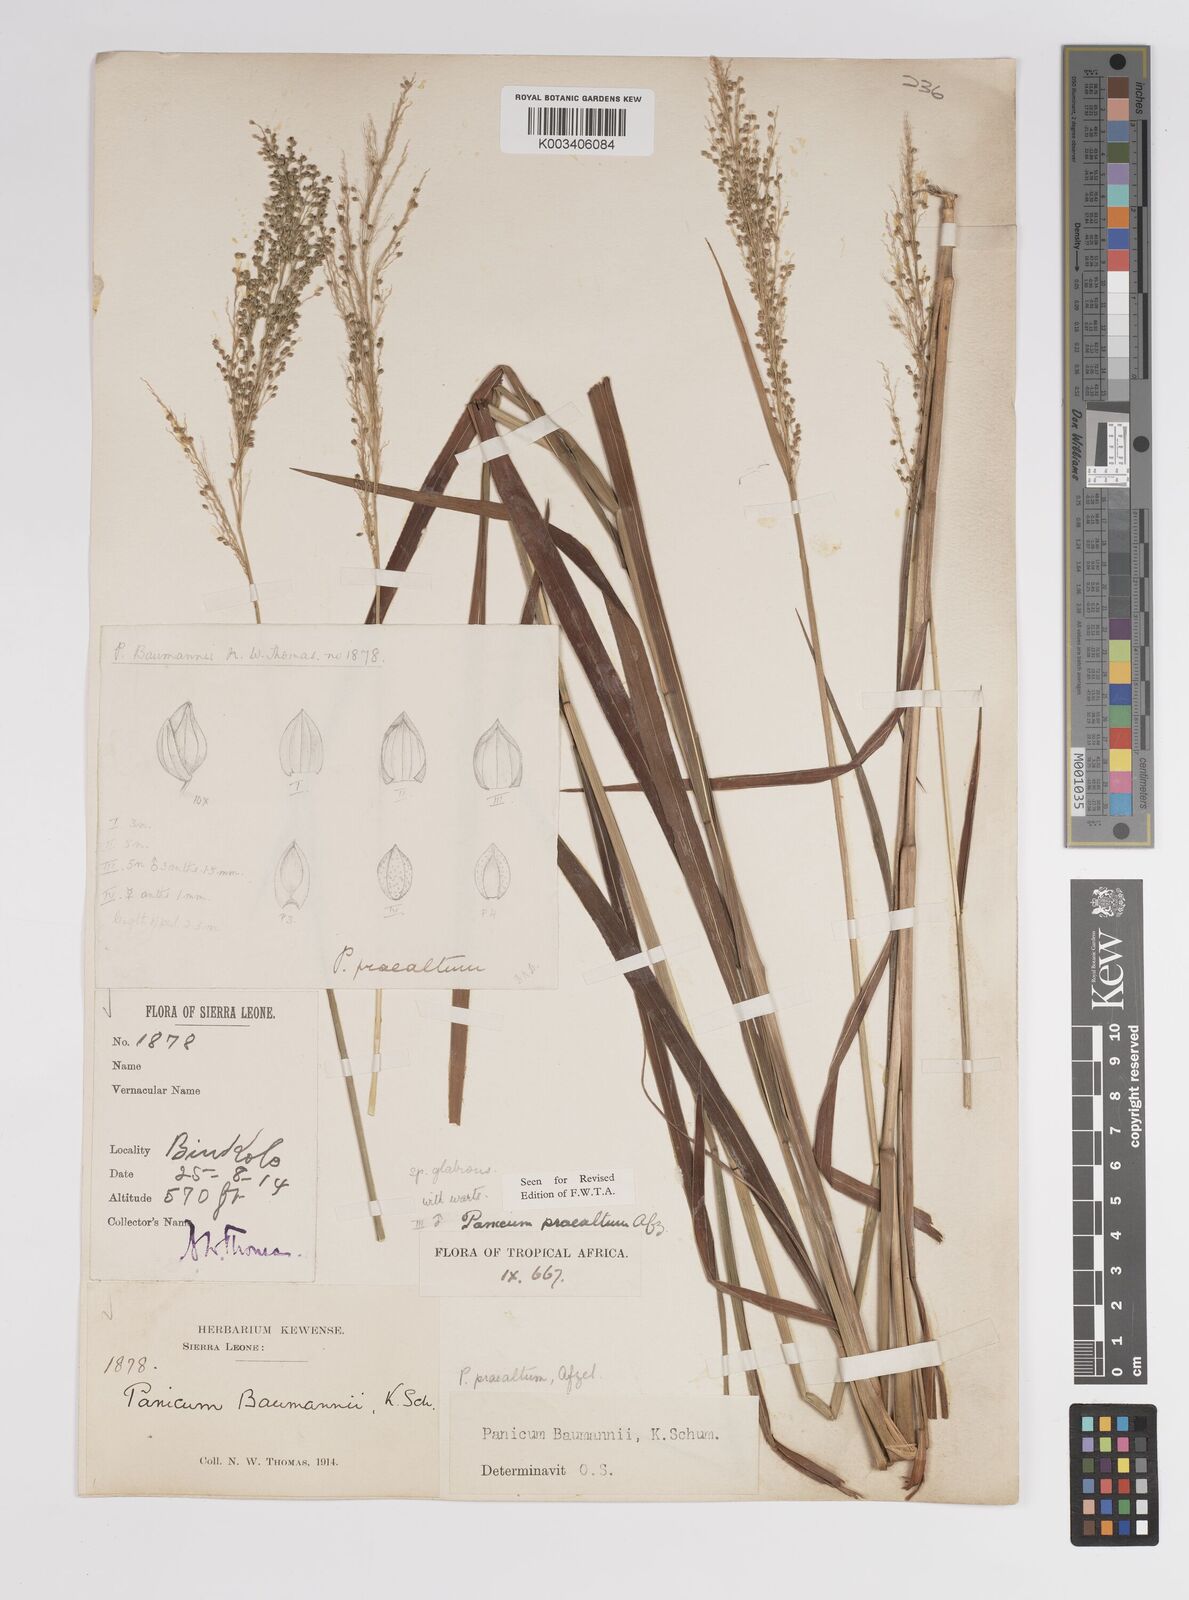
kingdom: Plantae
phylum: Tracheophyta
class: Liliopsida
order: Poales
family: Poaceae
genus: Trichanthecium
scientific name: Trichanthecium praealtum
